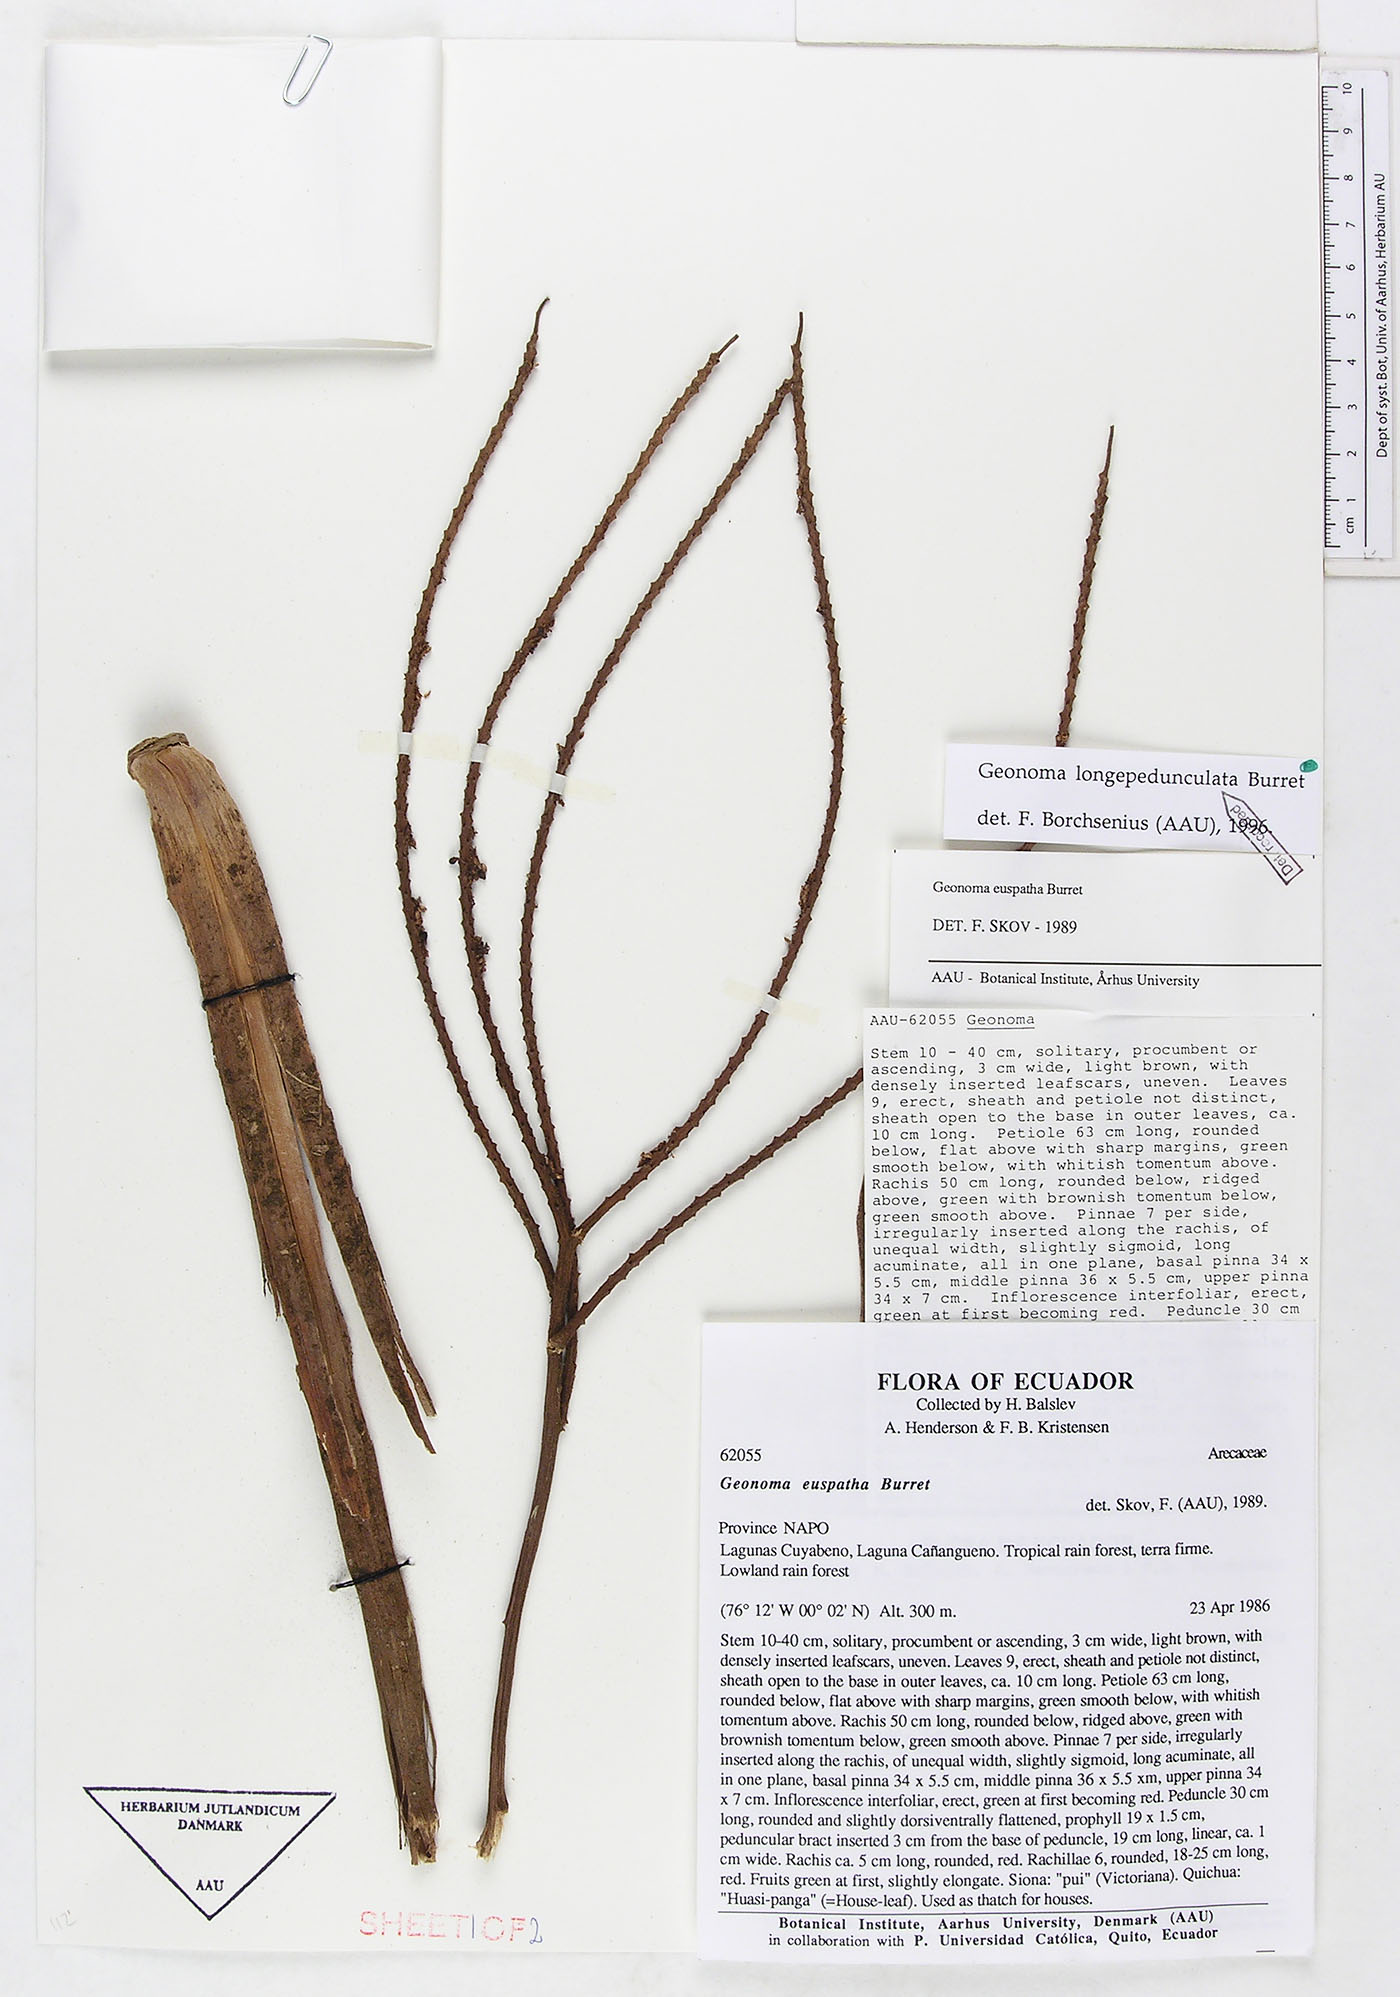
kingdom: Plantae
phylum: Tracheophyta
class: Liliopsida
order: Arecales
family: Arecaceae
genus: Geonoma
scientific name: Geonoma longepedunculata
